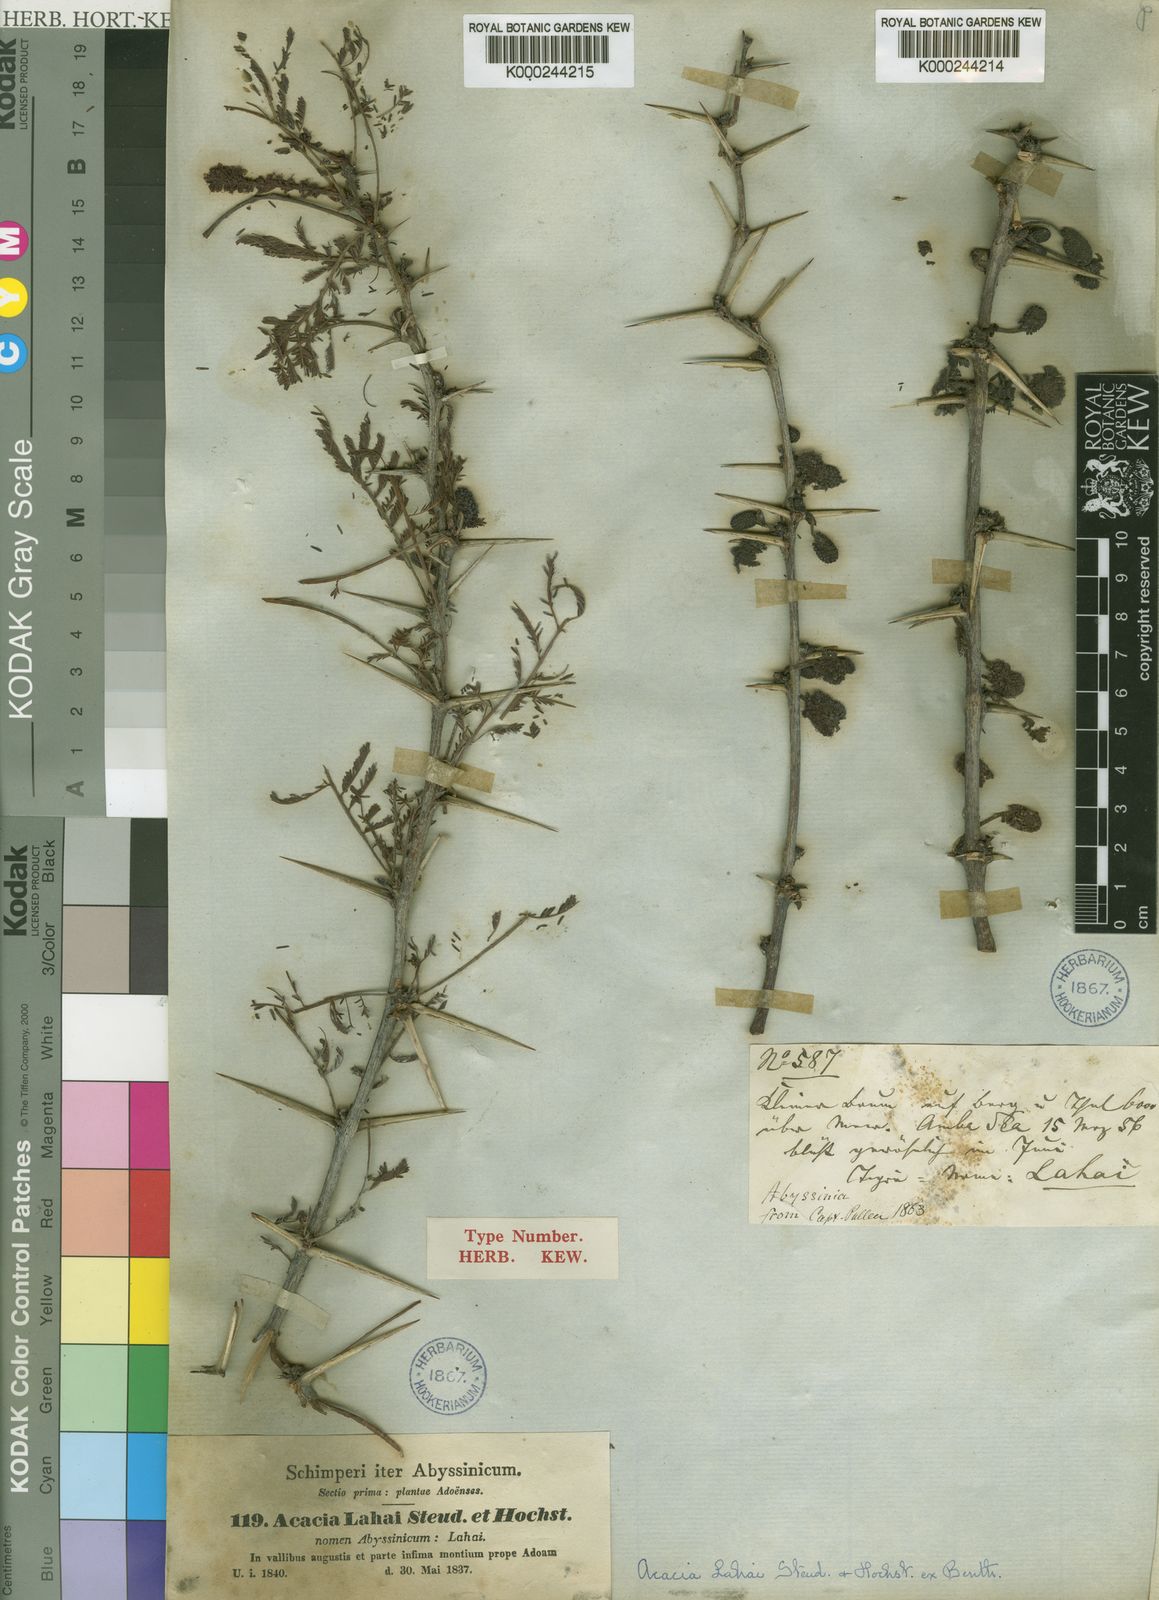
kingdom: Plantae
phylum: Tracheophyta
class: Magnoliopsida
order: Fabales
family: Fabaceae
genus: Vachellia
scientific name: Vachellia lahai
